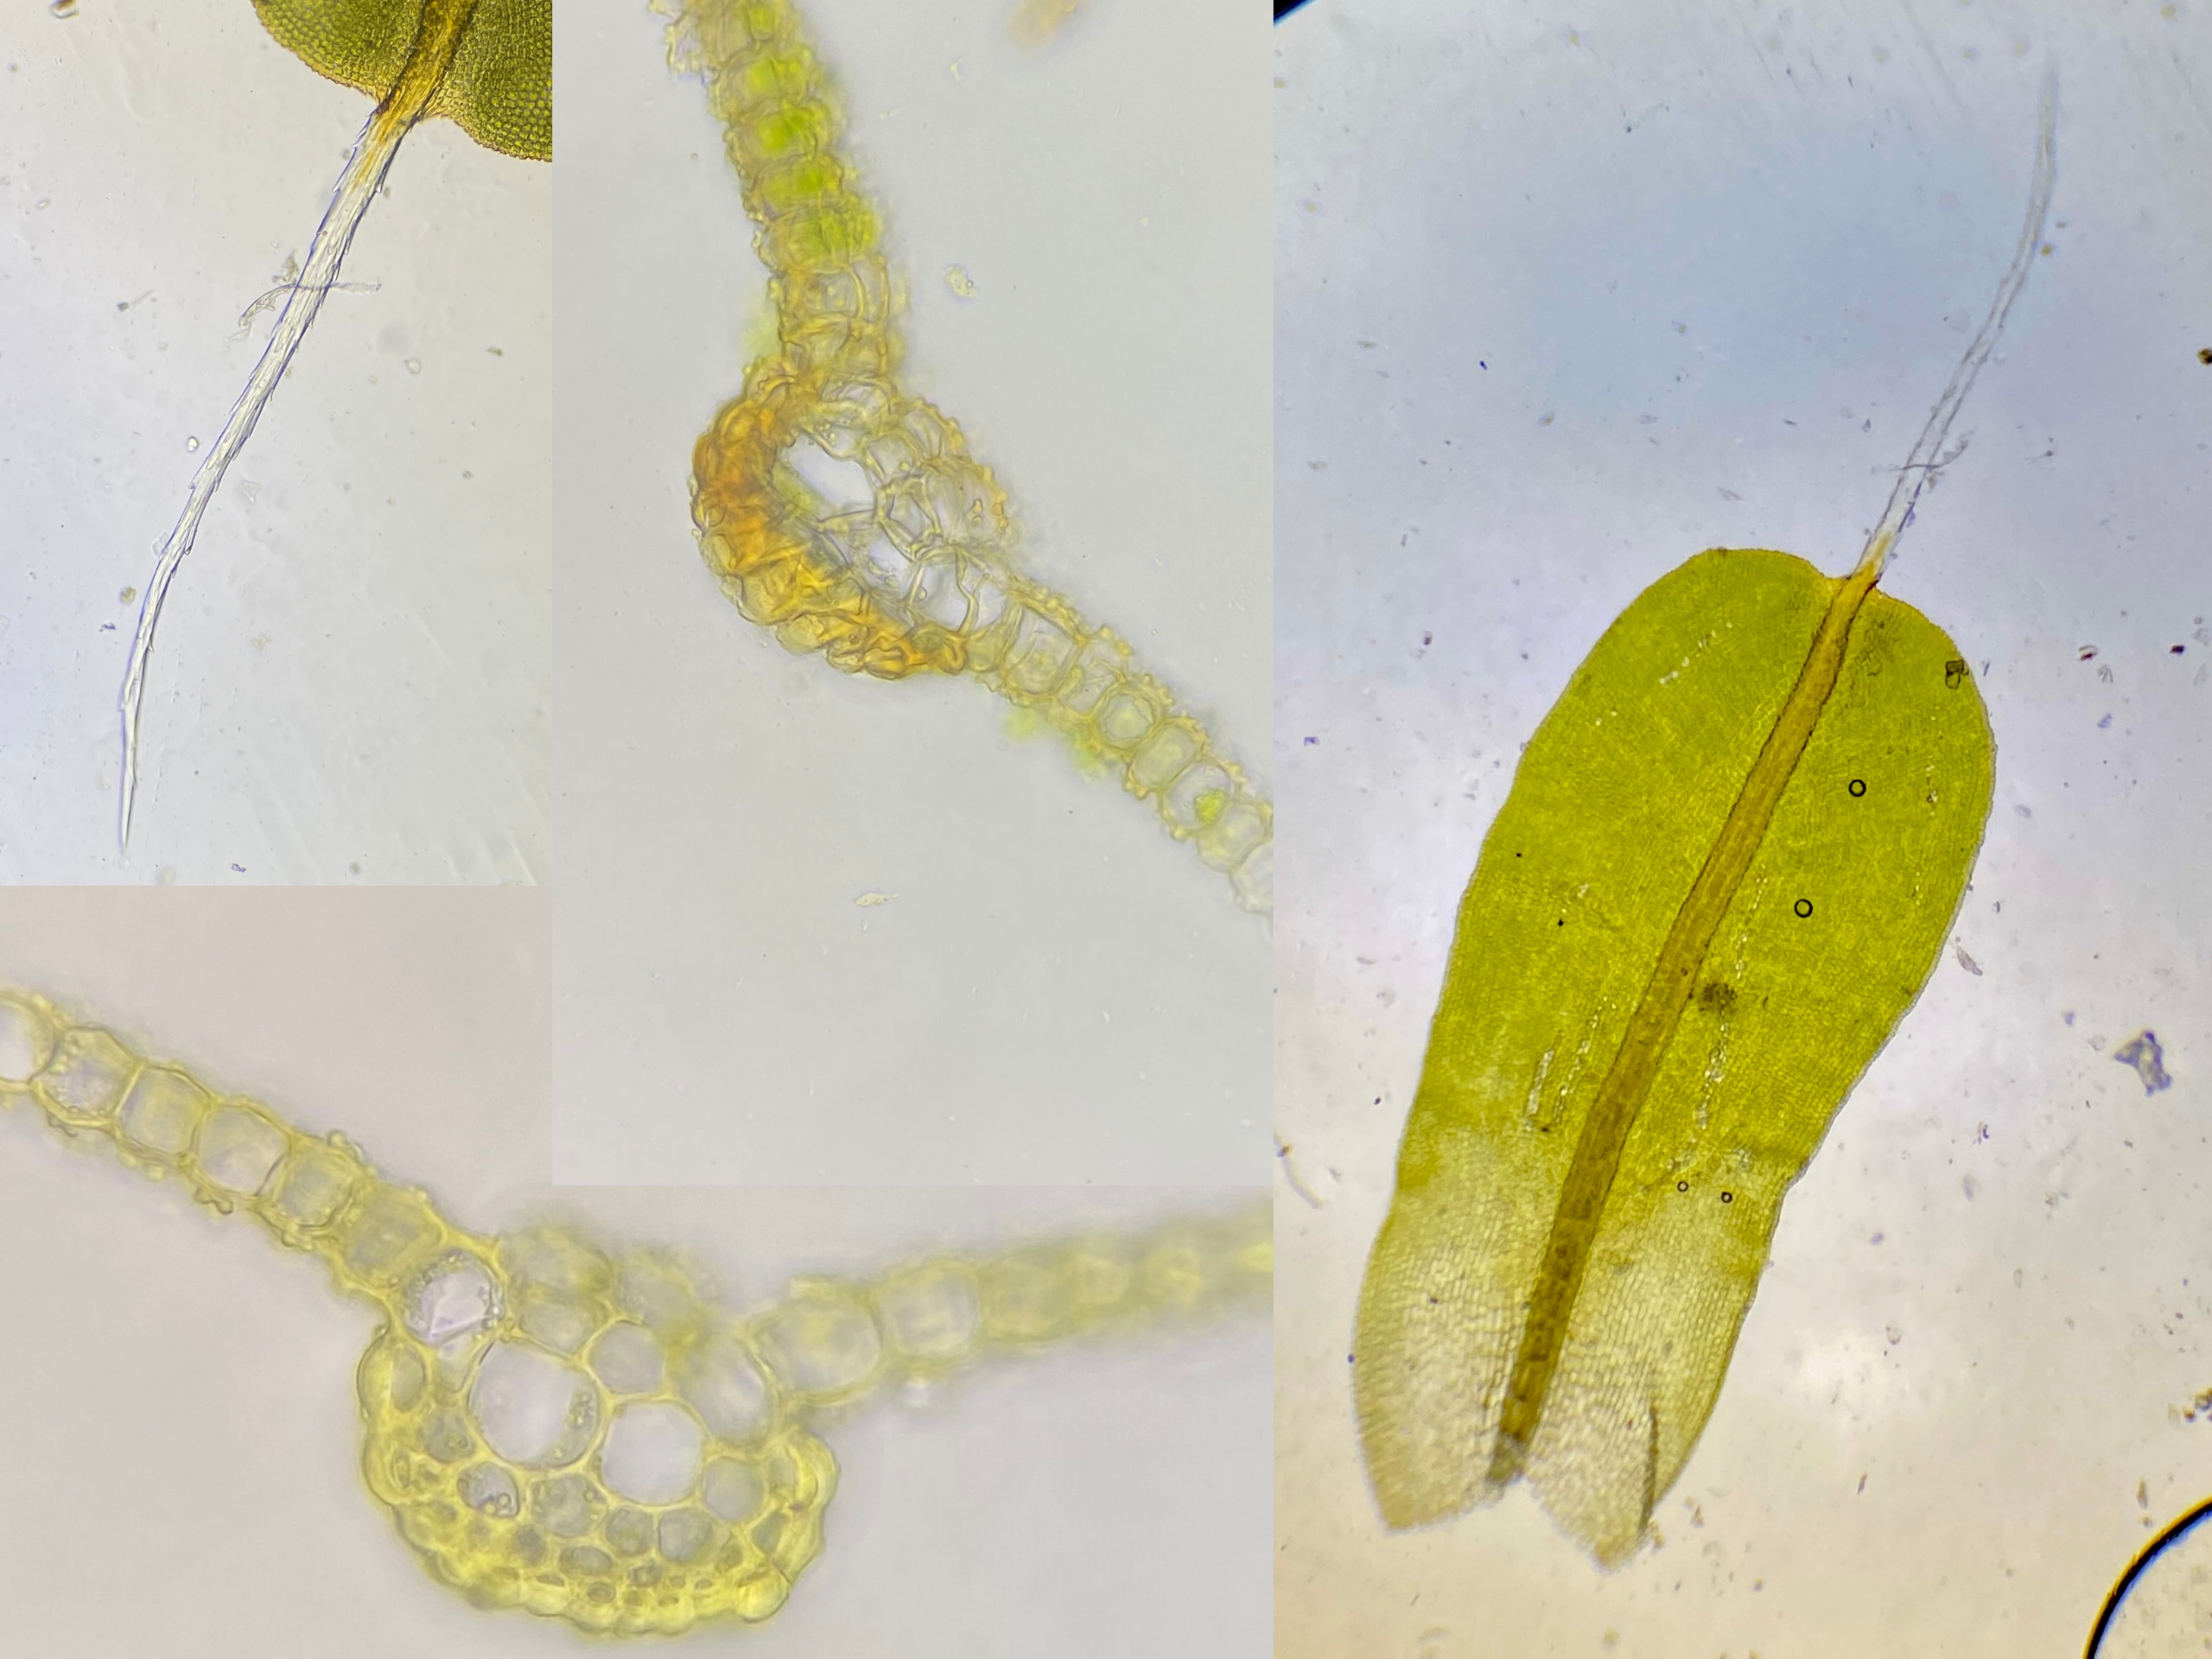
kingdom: Plantae
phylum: Bryophyta
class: Bryopsida
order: Pottiales
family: Pottiaceae
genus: Syntrichia
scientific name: Syntrichia virescens
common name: Grøn hårstjerne
